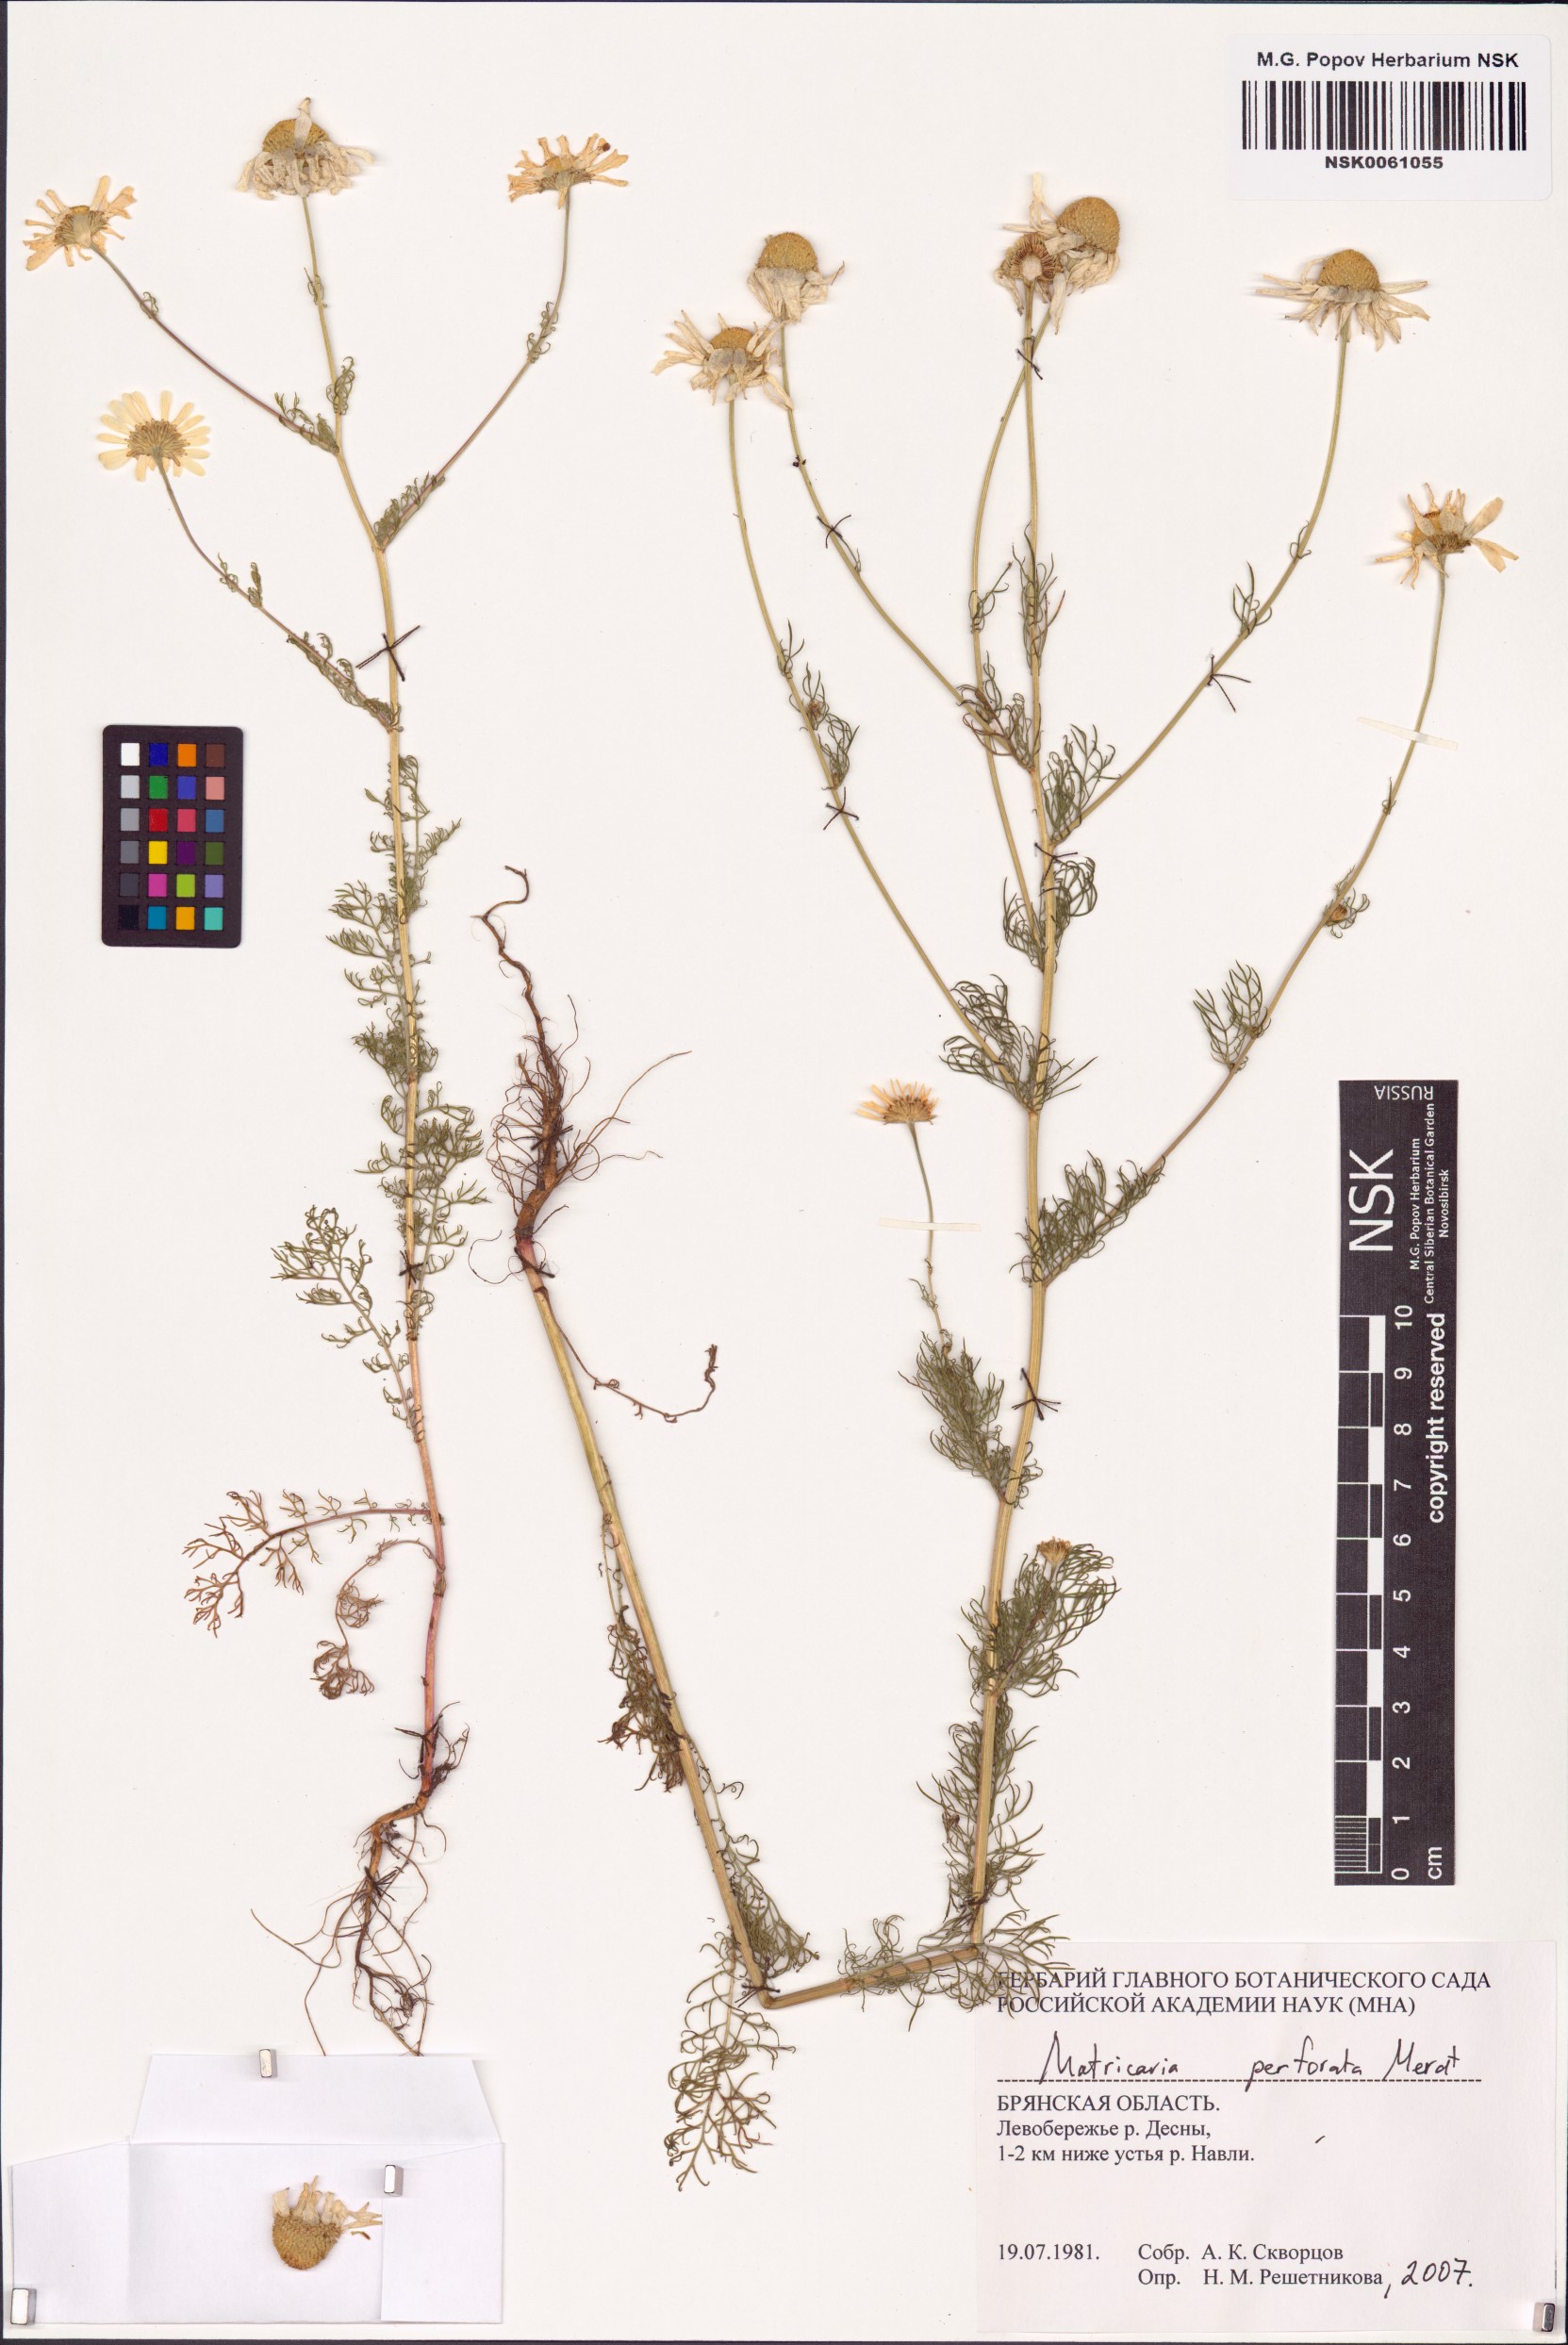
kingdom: Plantae
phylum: Tracheophyta
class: Magnoliopsida
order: Asterales
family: Asteraceae
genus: Tripleurospermum
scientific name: Tripleurospermum inodorum
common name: Scentless mayweed
